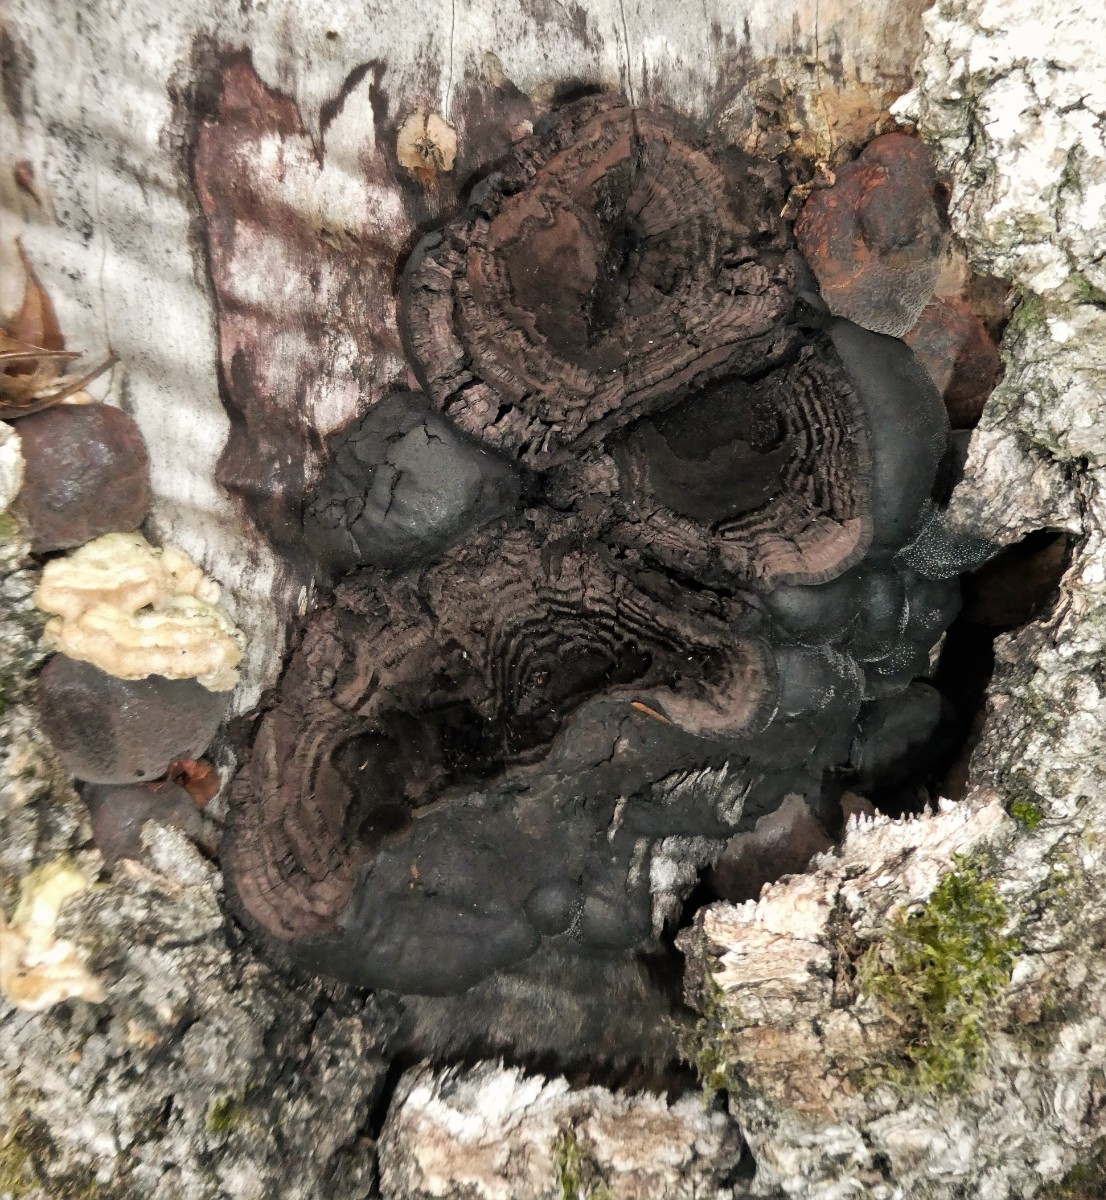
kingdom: Fungi
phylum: Ascomycota
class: Sordariomycetes
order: Xylariales
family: Hypoxylaceae
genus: Daldinia
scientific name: Daldinia concentrica
